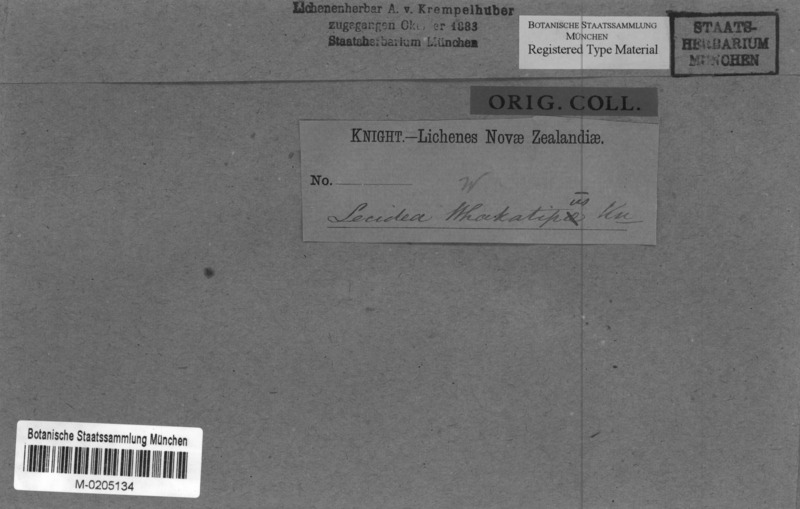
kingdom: Fungi
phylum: Ascomycota
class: Lecanoromycetes
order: Caliciales
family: Caliciaceae
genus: Buellia
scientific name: Buellia
